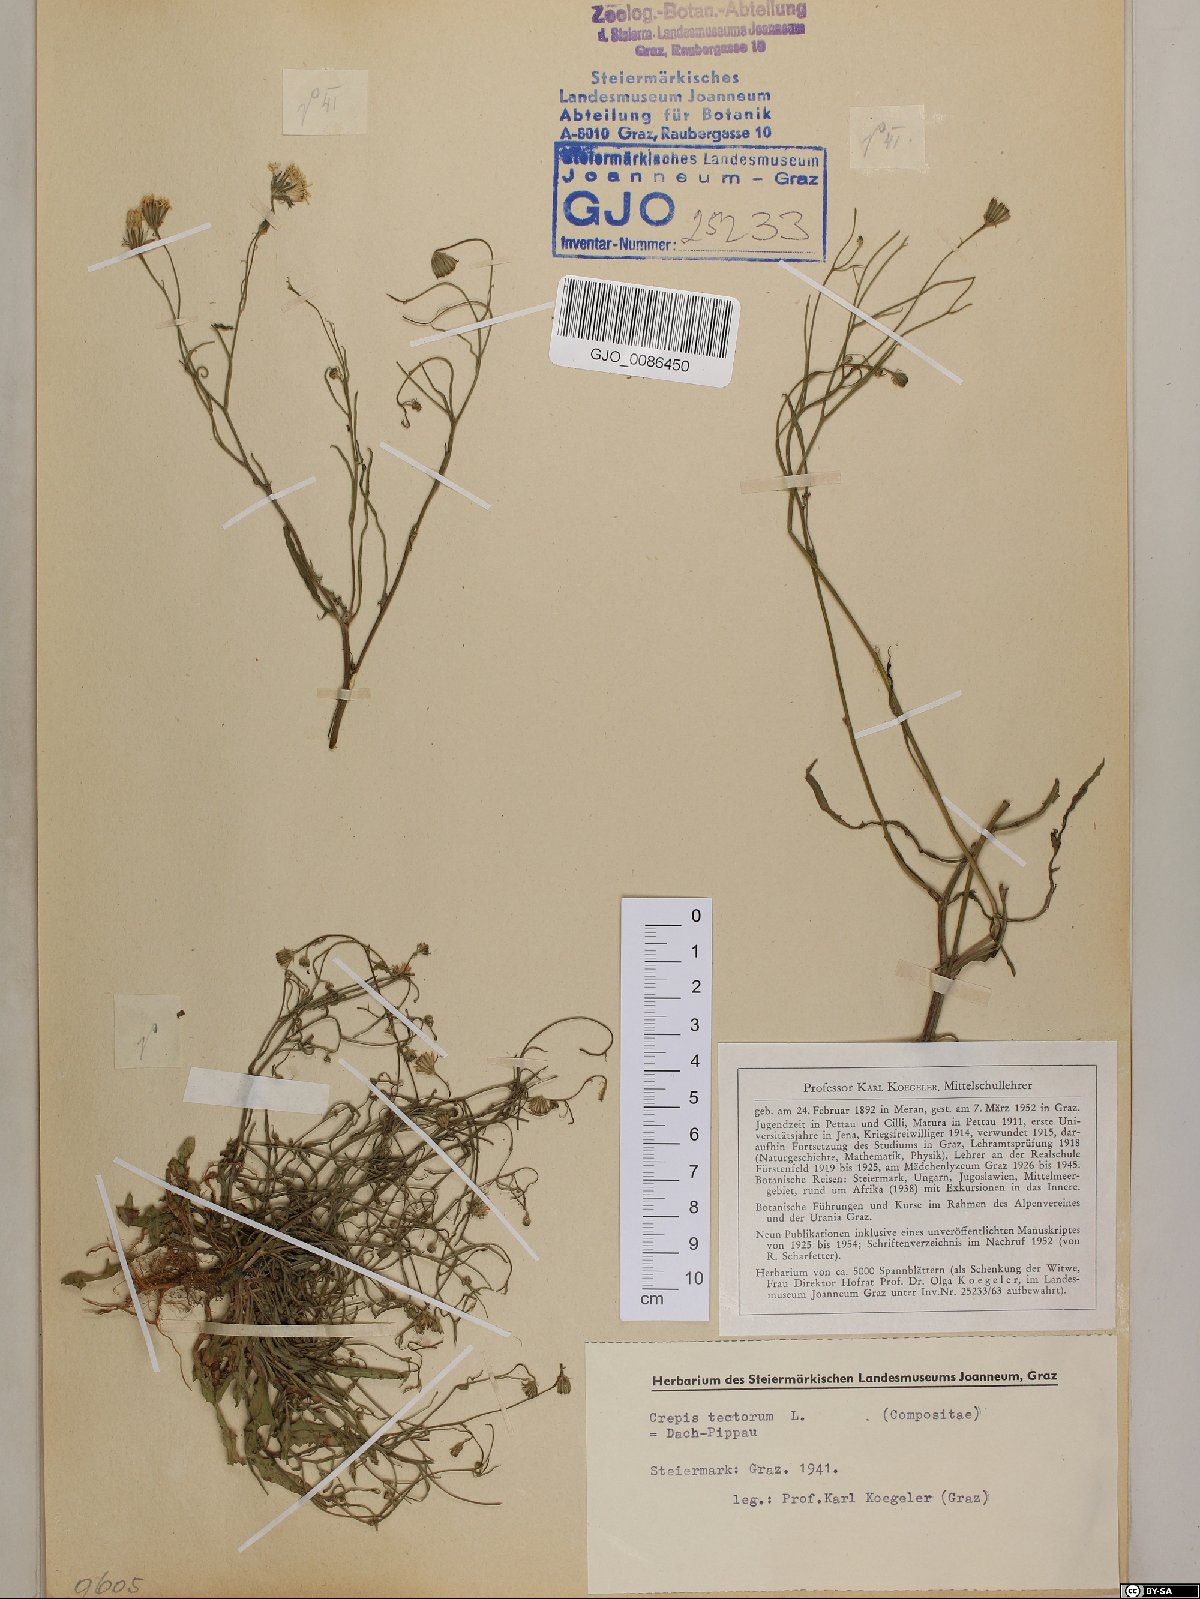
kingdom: Plantae
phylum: Tracheophyta
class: Magnoliopsida
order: Asterales
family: Asteraceae
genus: Crepis
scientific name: Crepis tectorum
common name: Narrow-leaved hawk's-beard
